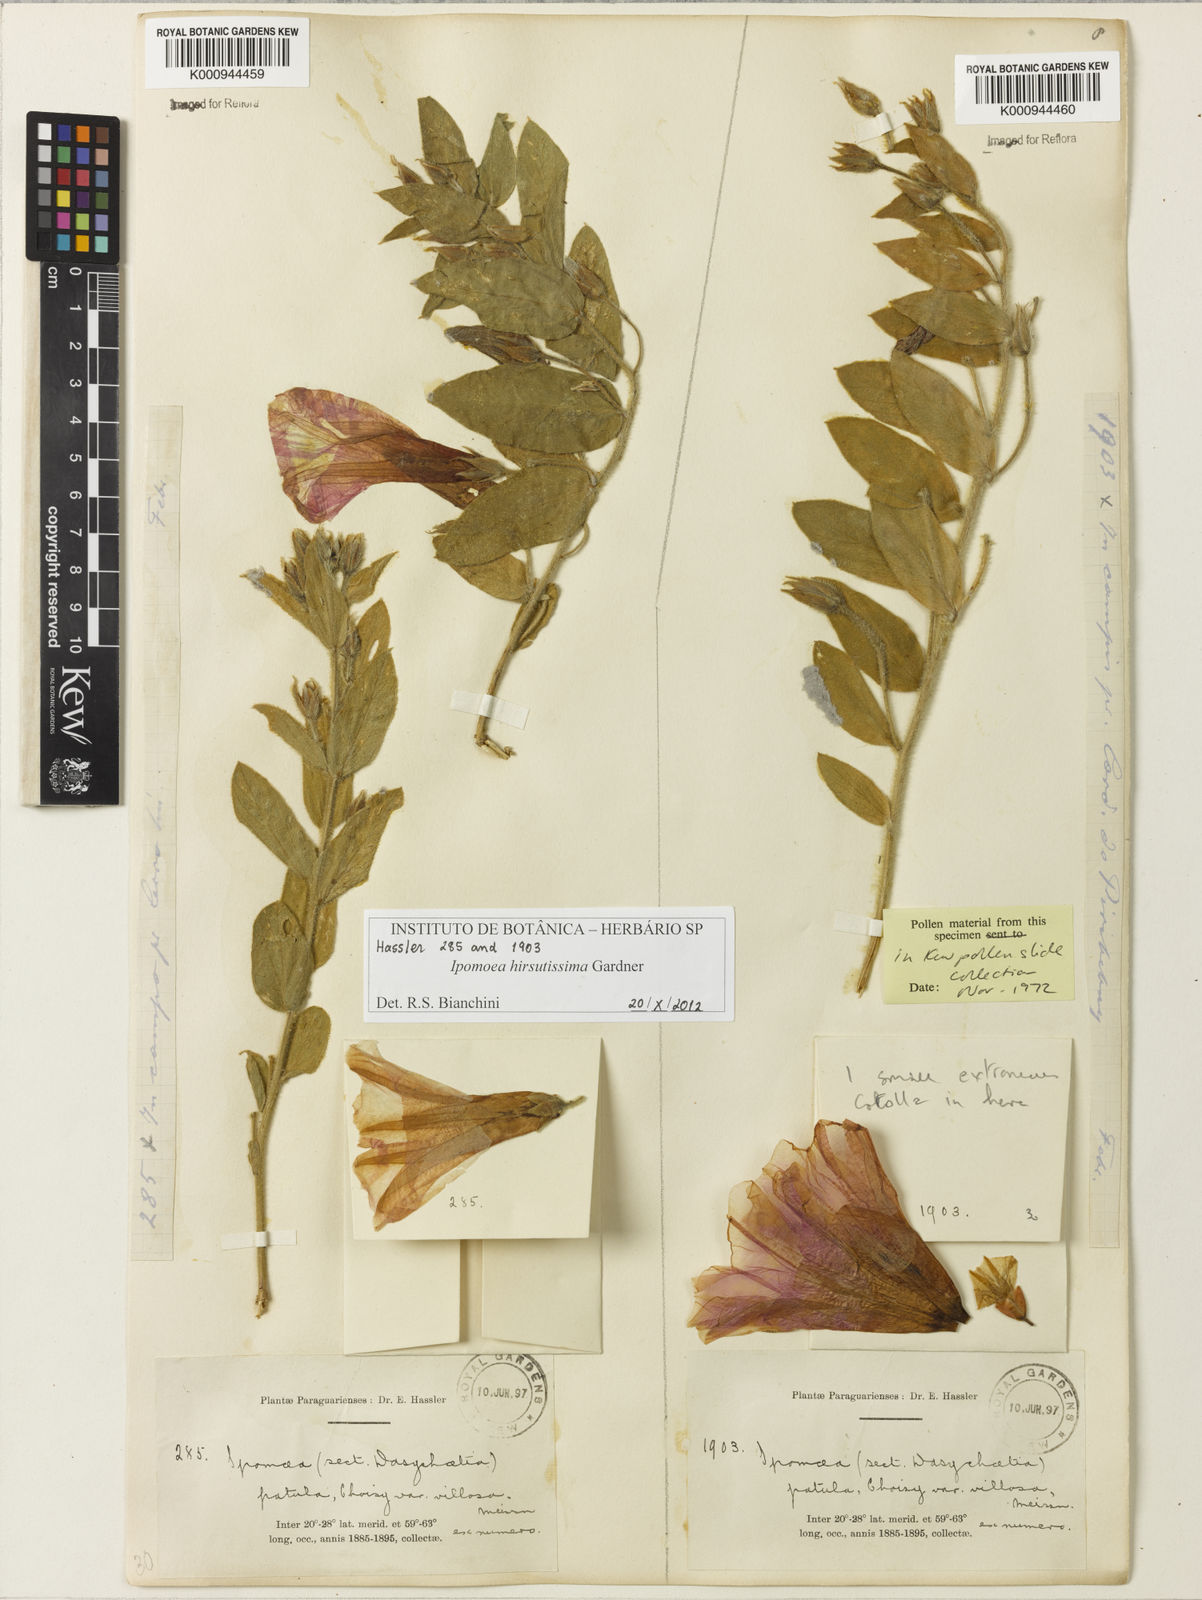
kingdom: Plantae
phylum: Tracheophyta
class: Magnoliopsida
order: Solanales
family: Convolvulaceae
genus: Ipomoea
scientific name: Ipomoea hirsutissima
